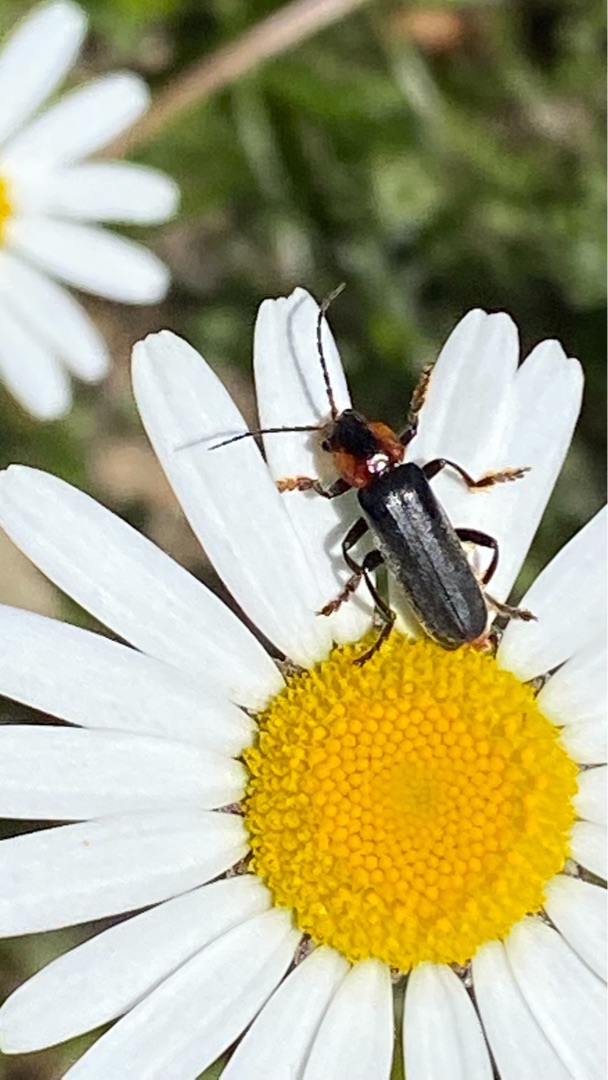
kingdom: Animalia
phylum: Arthropoda
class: Insecta
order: Coleoptera
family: Cantharidae
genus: Cantharis
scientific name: Cantharis fusca
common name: Stor blødvinge
